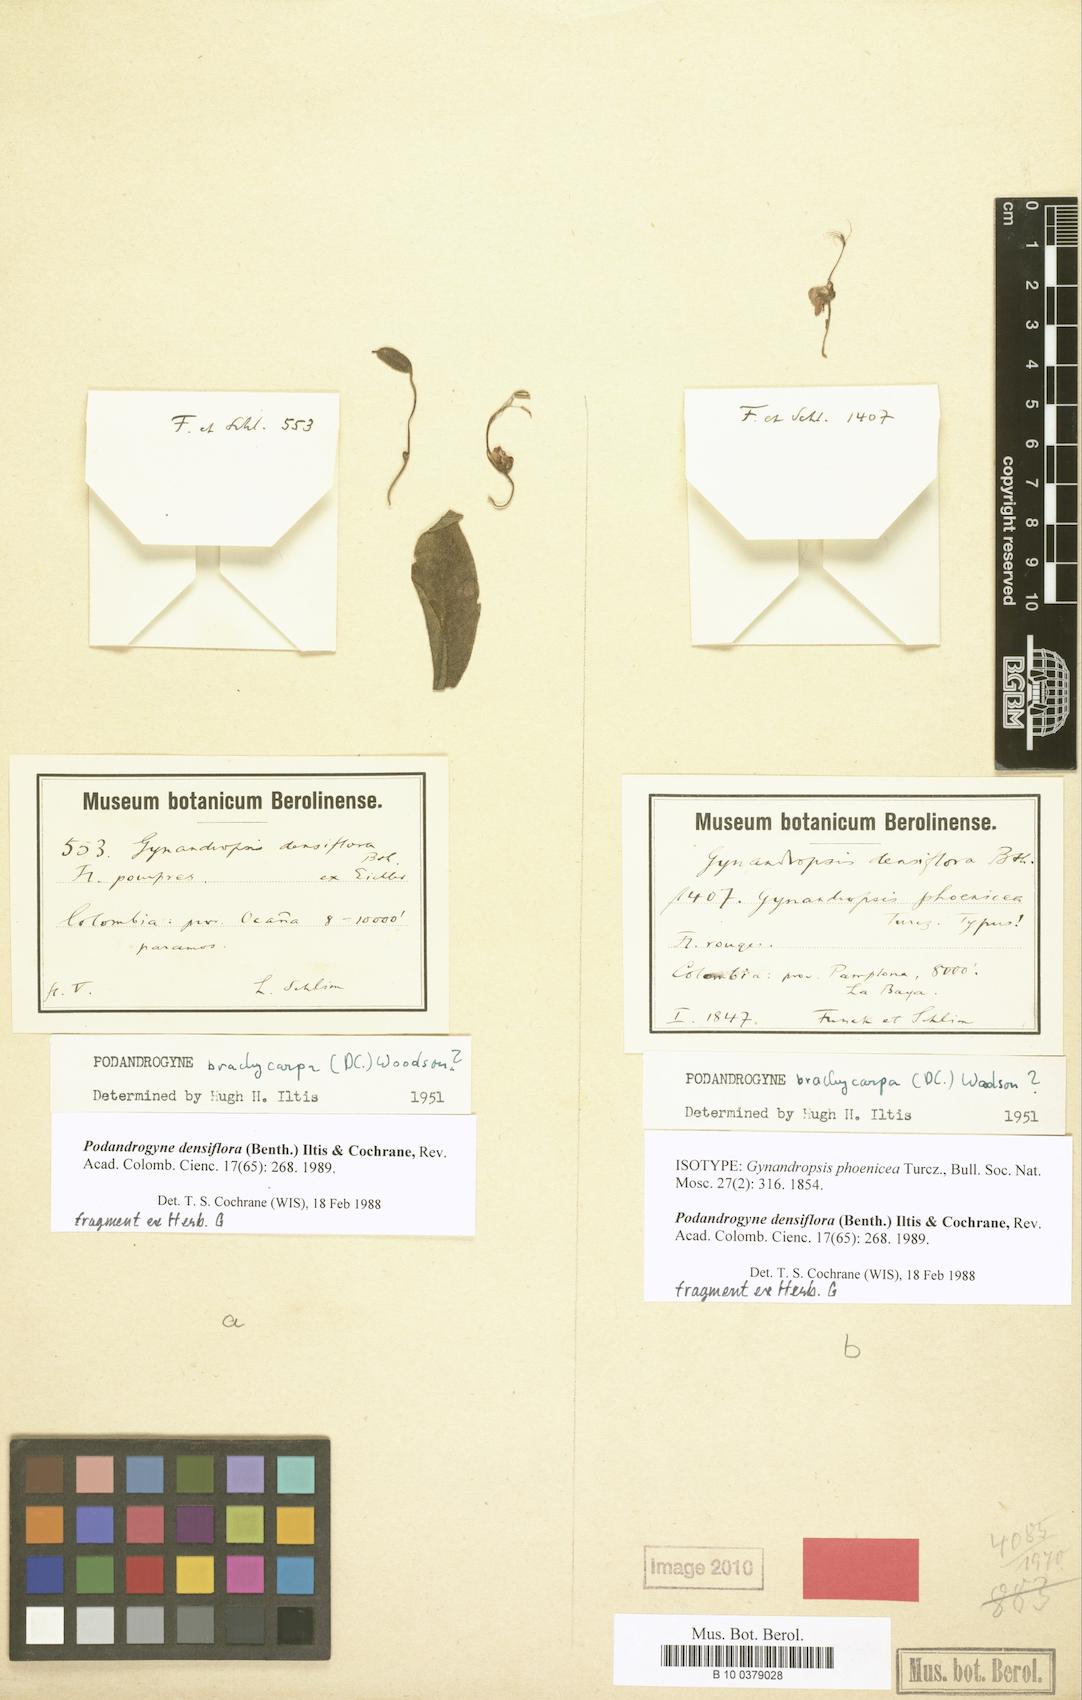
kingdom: Plantae
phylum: Tracheophyta
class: Magnoliopsida
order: Brassicales
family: Cleomaceae
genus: Podandrogyne
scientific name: Podandrogyne densiflora
